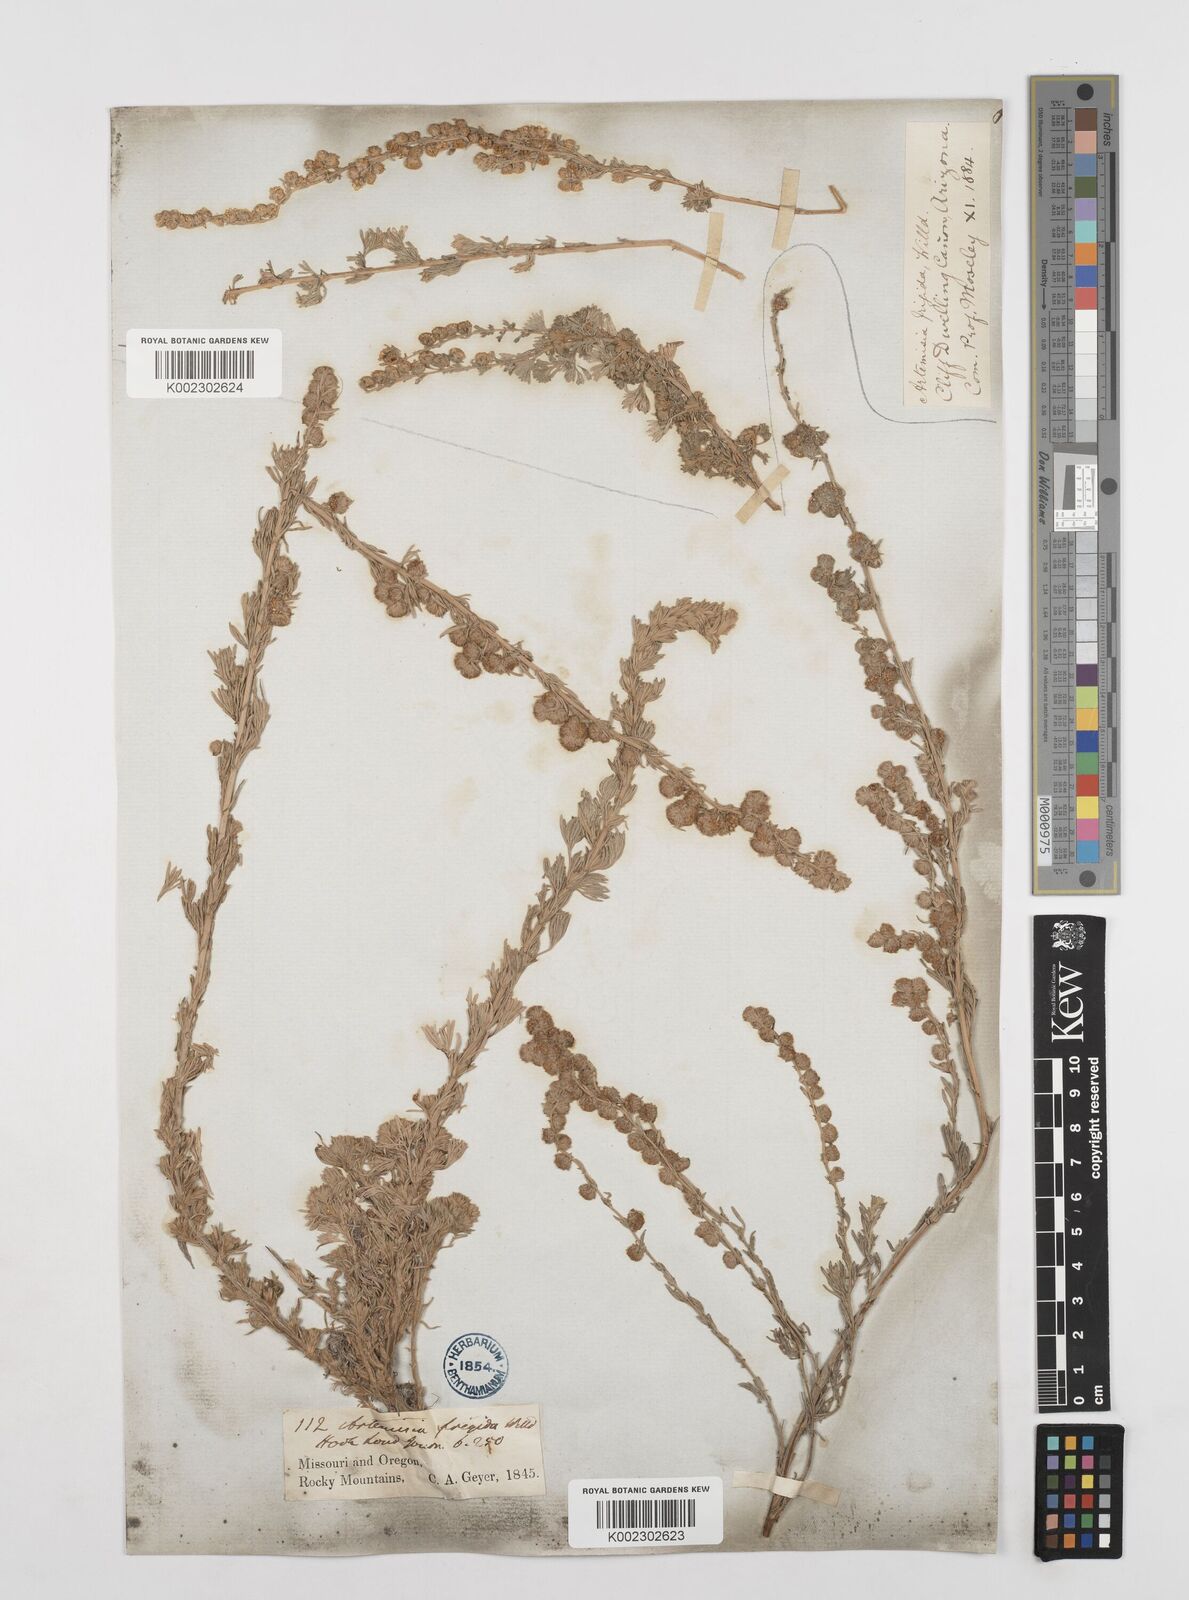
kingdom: Plantae
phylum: Tracheophyta
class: Magnoliopsida
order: Asterales
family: Asteraceae
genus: Artemisia
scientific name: Artemisia frigida
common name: Prairie sagewort
